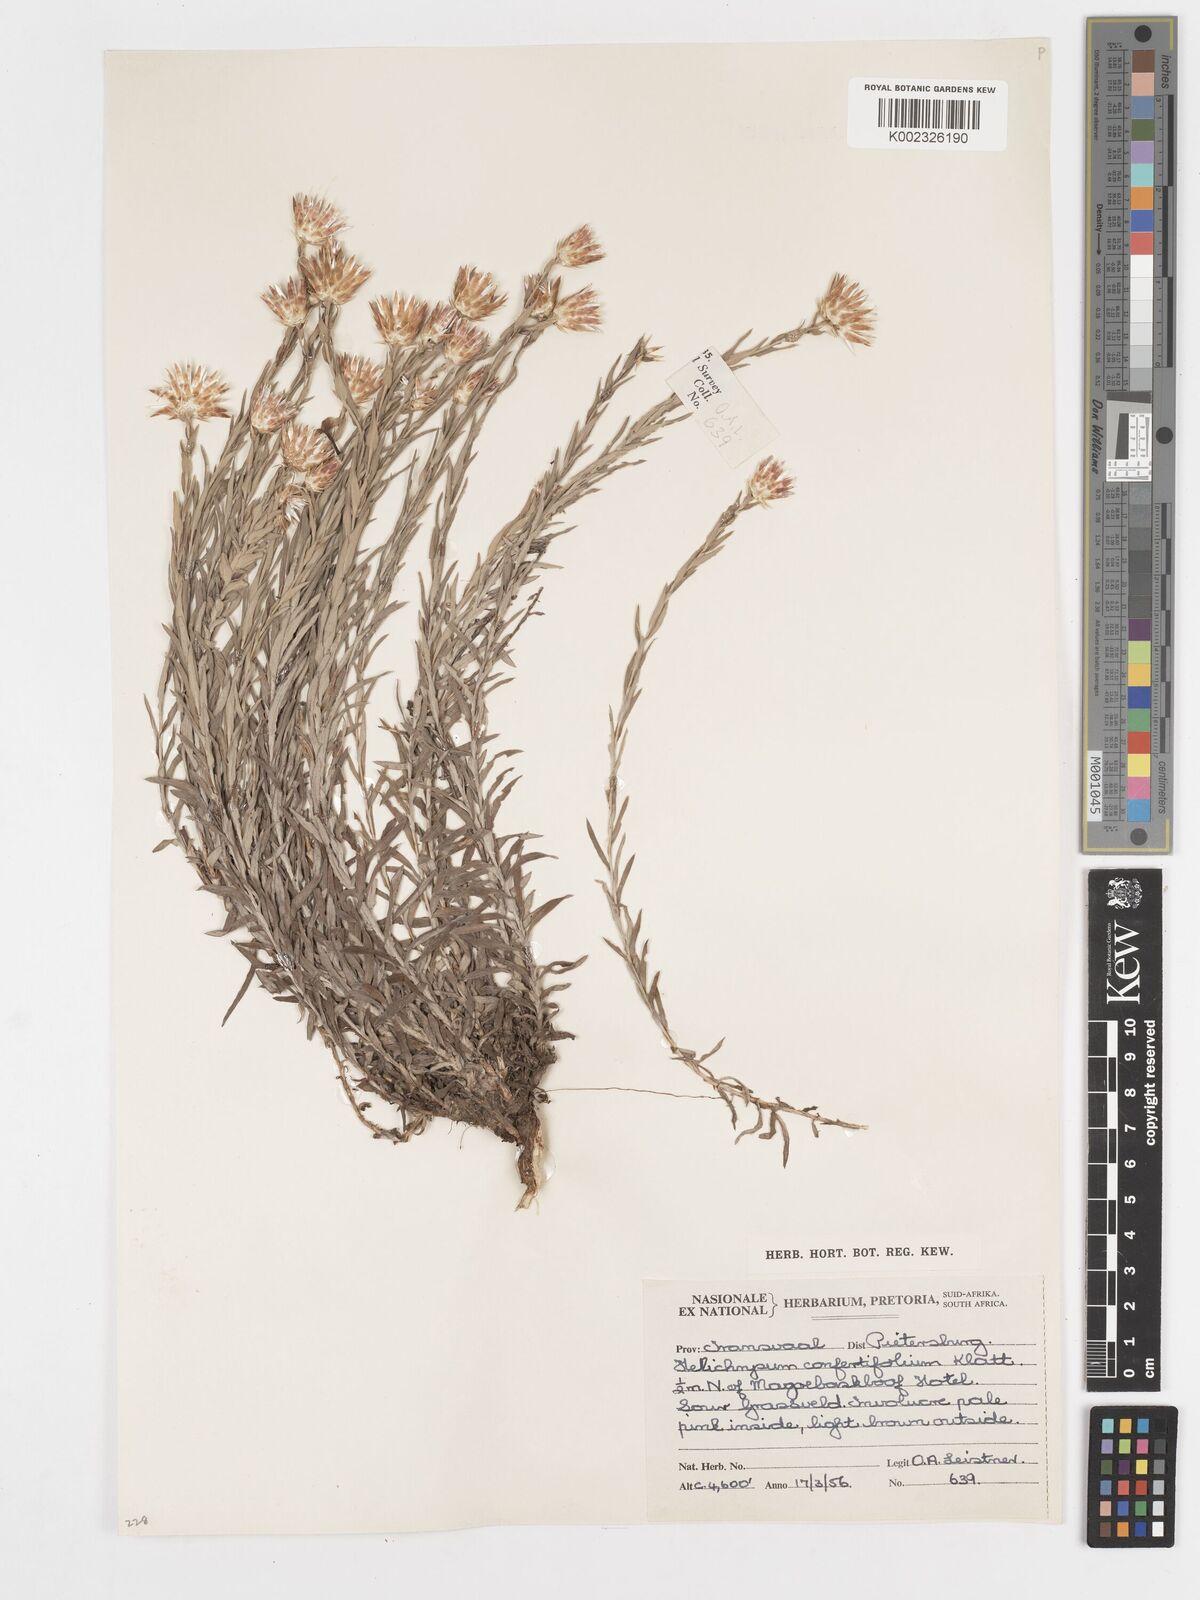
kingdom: Plantae
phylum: Tracheophyta
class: Magnoliopsida
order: Asterales
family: Asteraceae
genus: Helichrysum
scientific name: Helichrysum confertifolium
